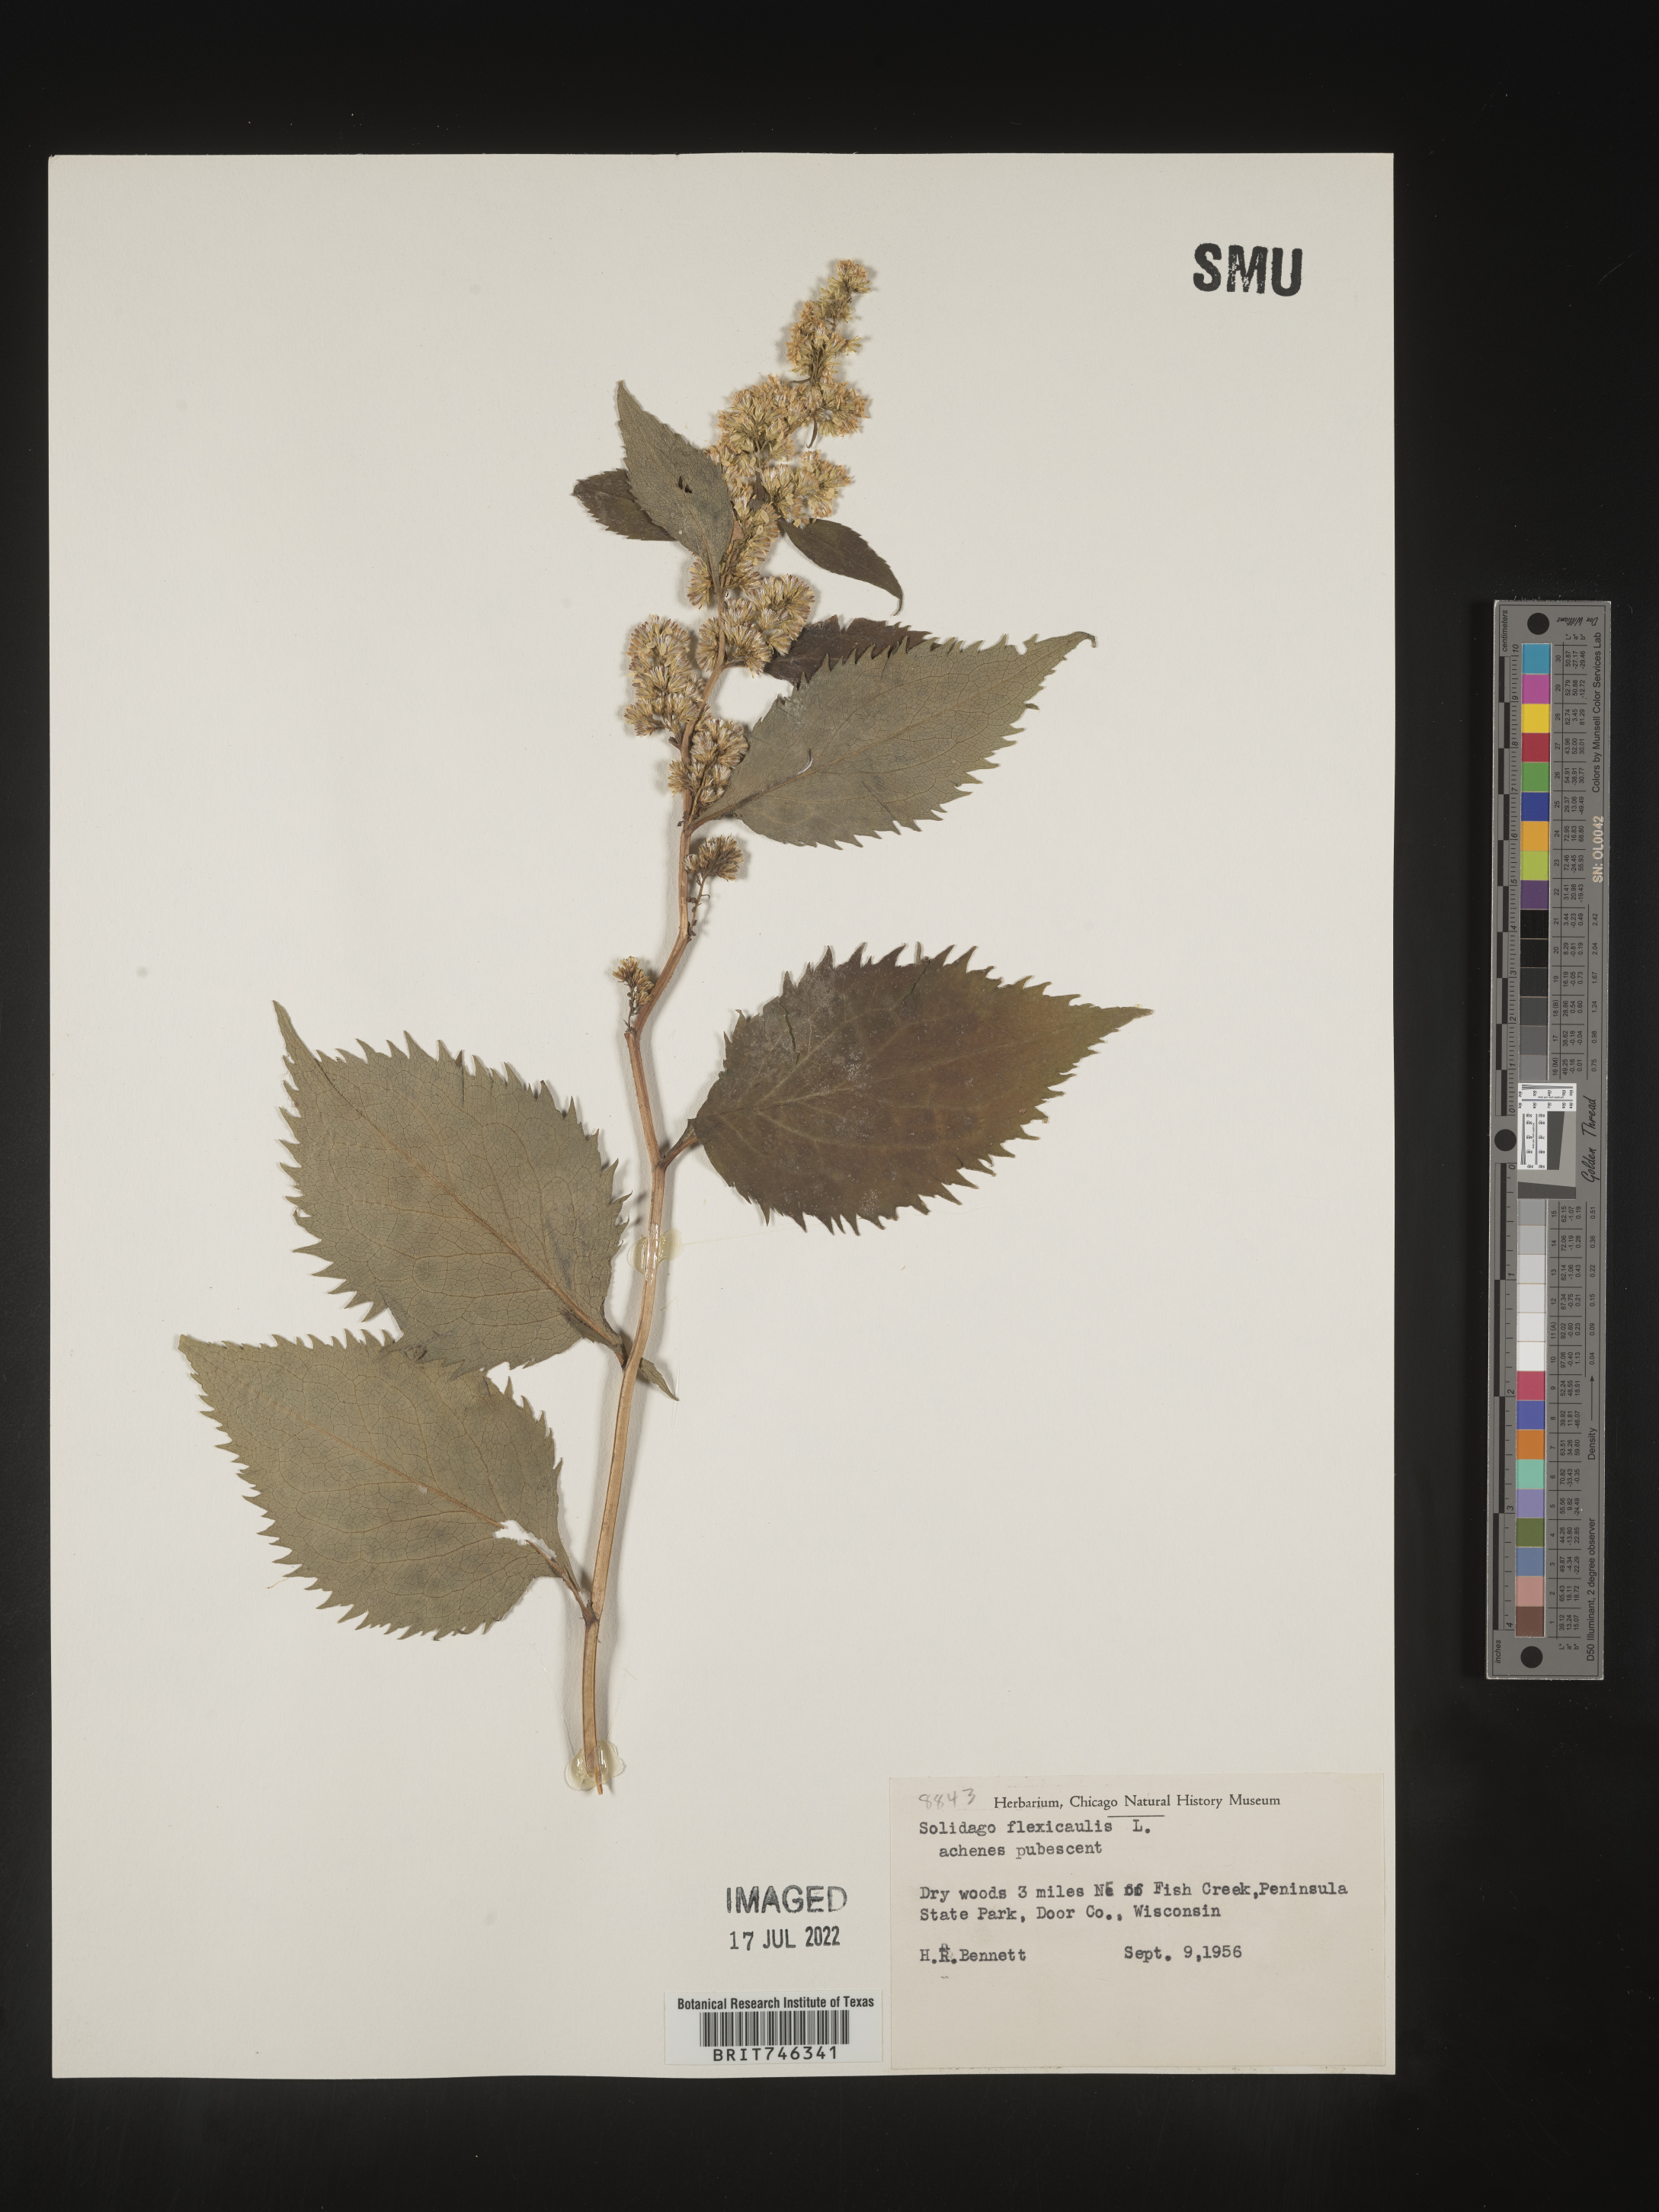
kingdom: Plantae
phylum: Tracheophyta
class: Magnoliopsida
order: Asterales
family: Asteraceae
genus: Solidago
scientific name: Solidago flexicaulis
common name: Zig-zag goldenrod
